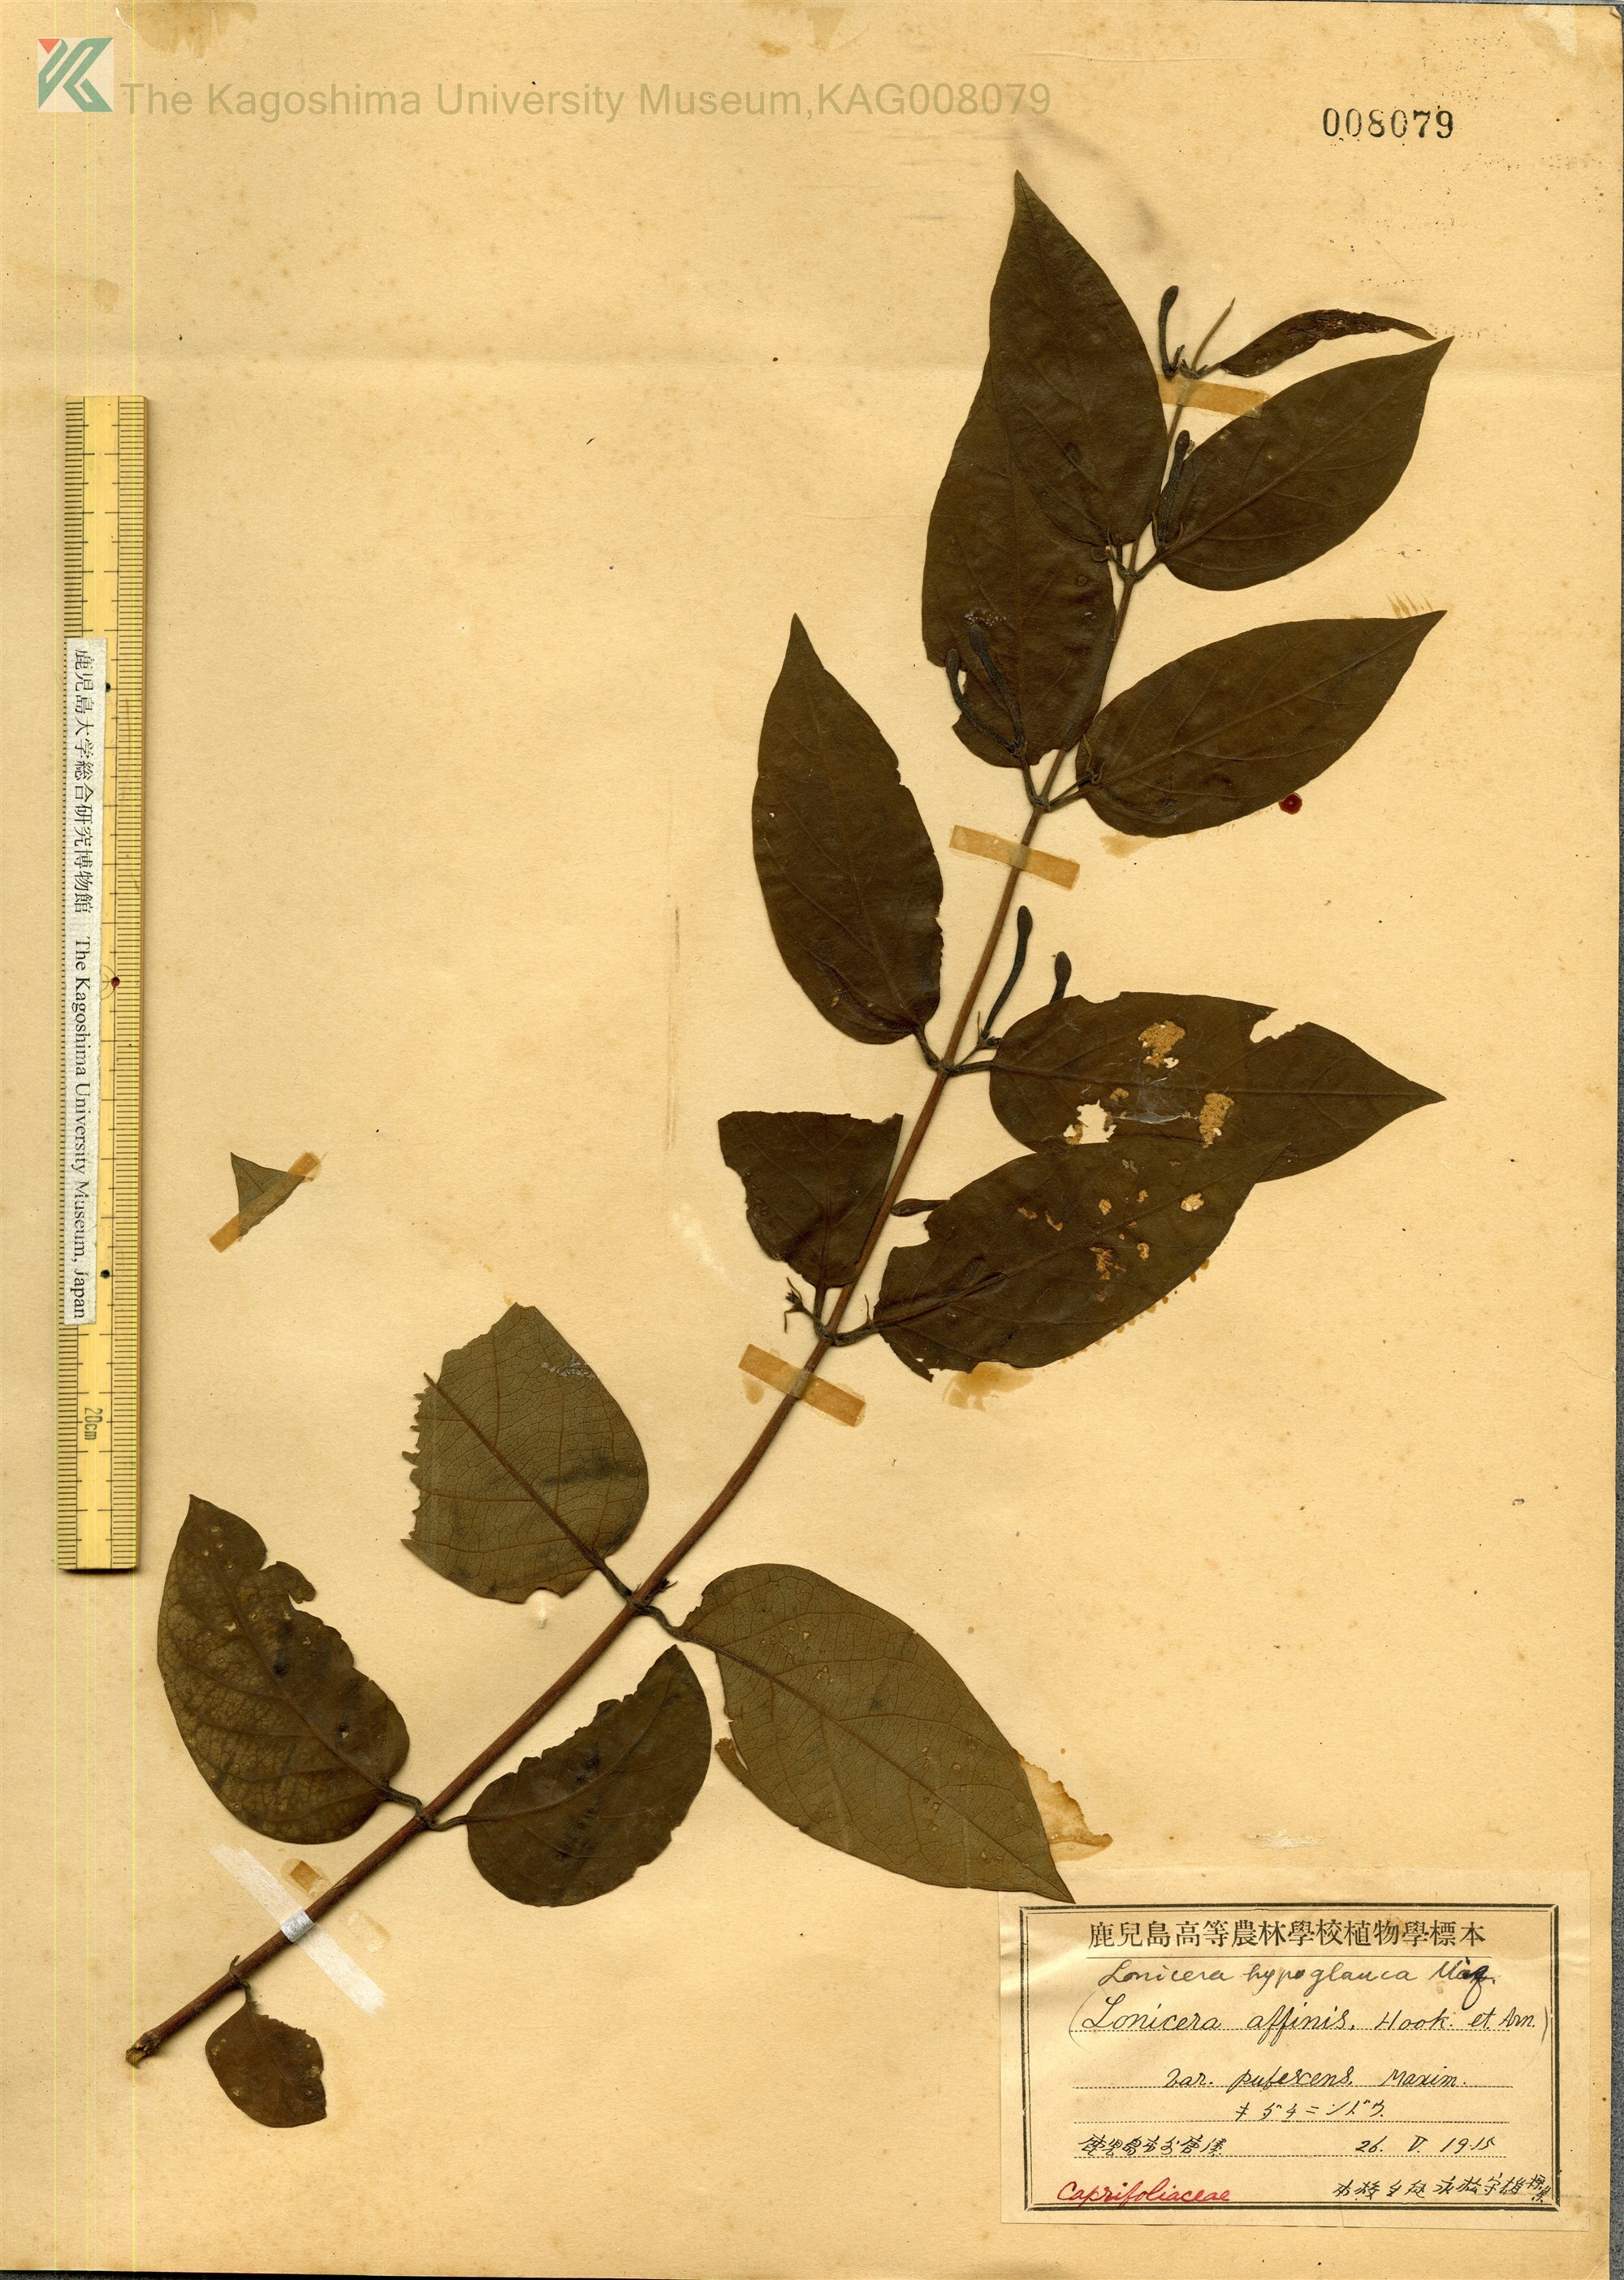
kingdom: Plantae
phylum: Tracheophyta
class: Magnoliopsida
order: Dipsacales
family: Caprifoliaceae
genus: Lonicera
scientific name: Lonicera hypoglauca
